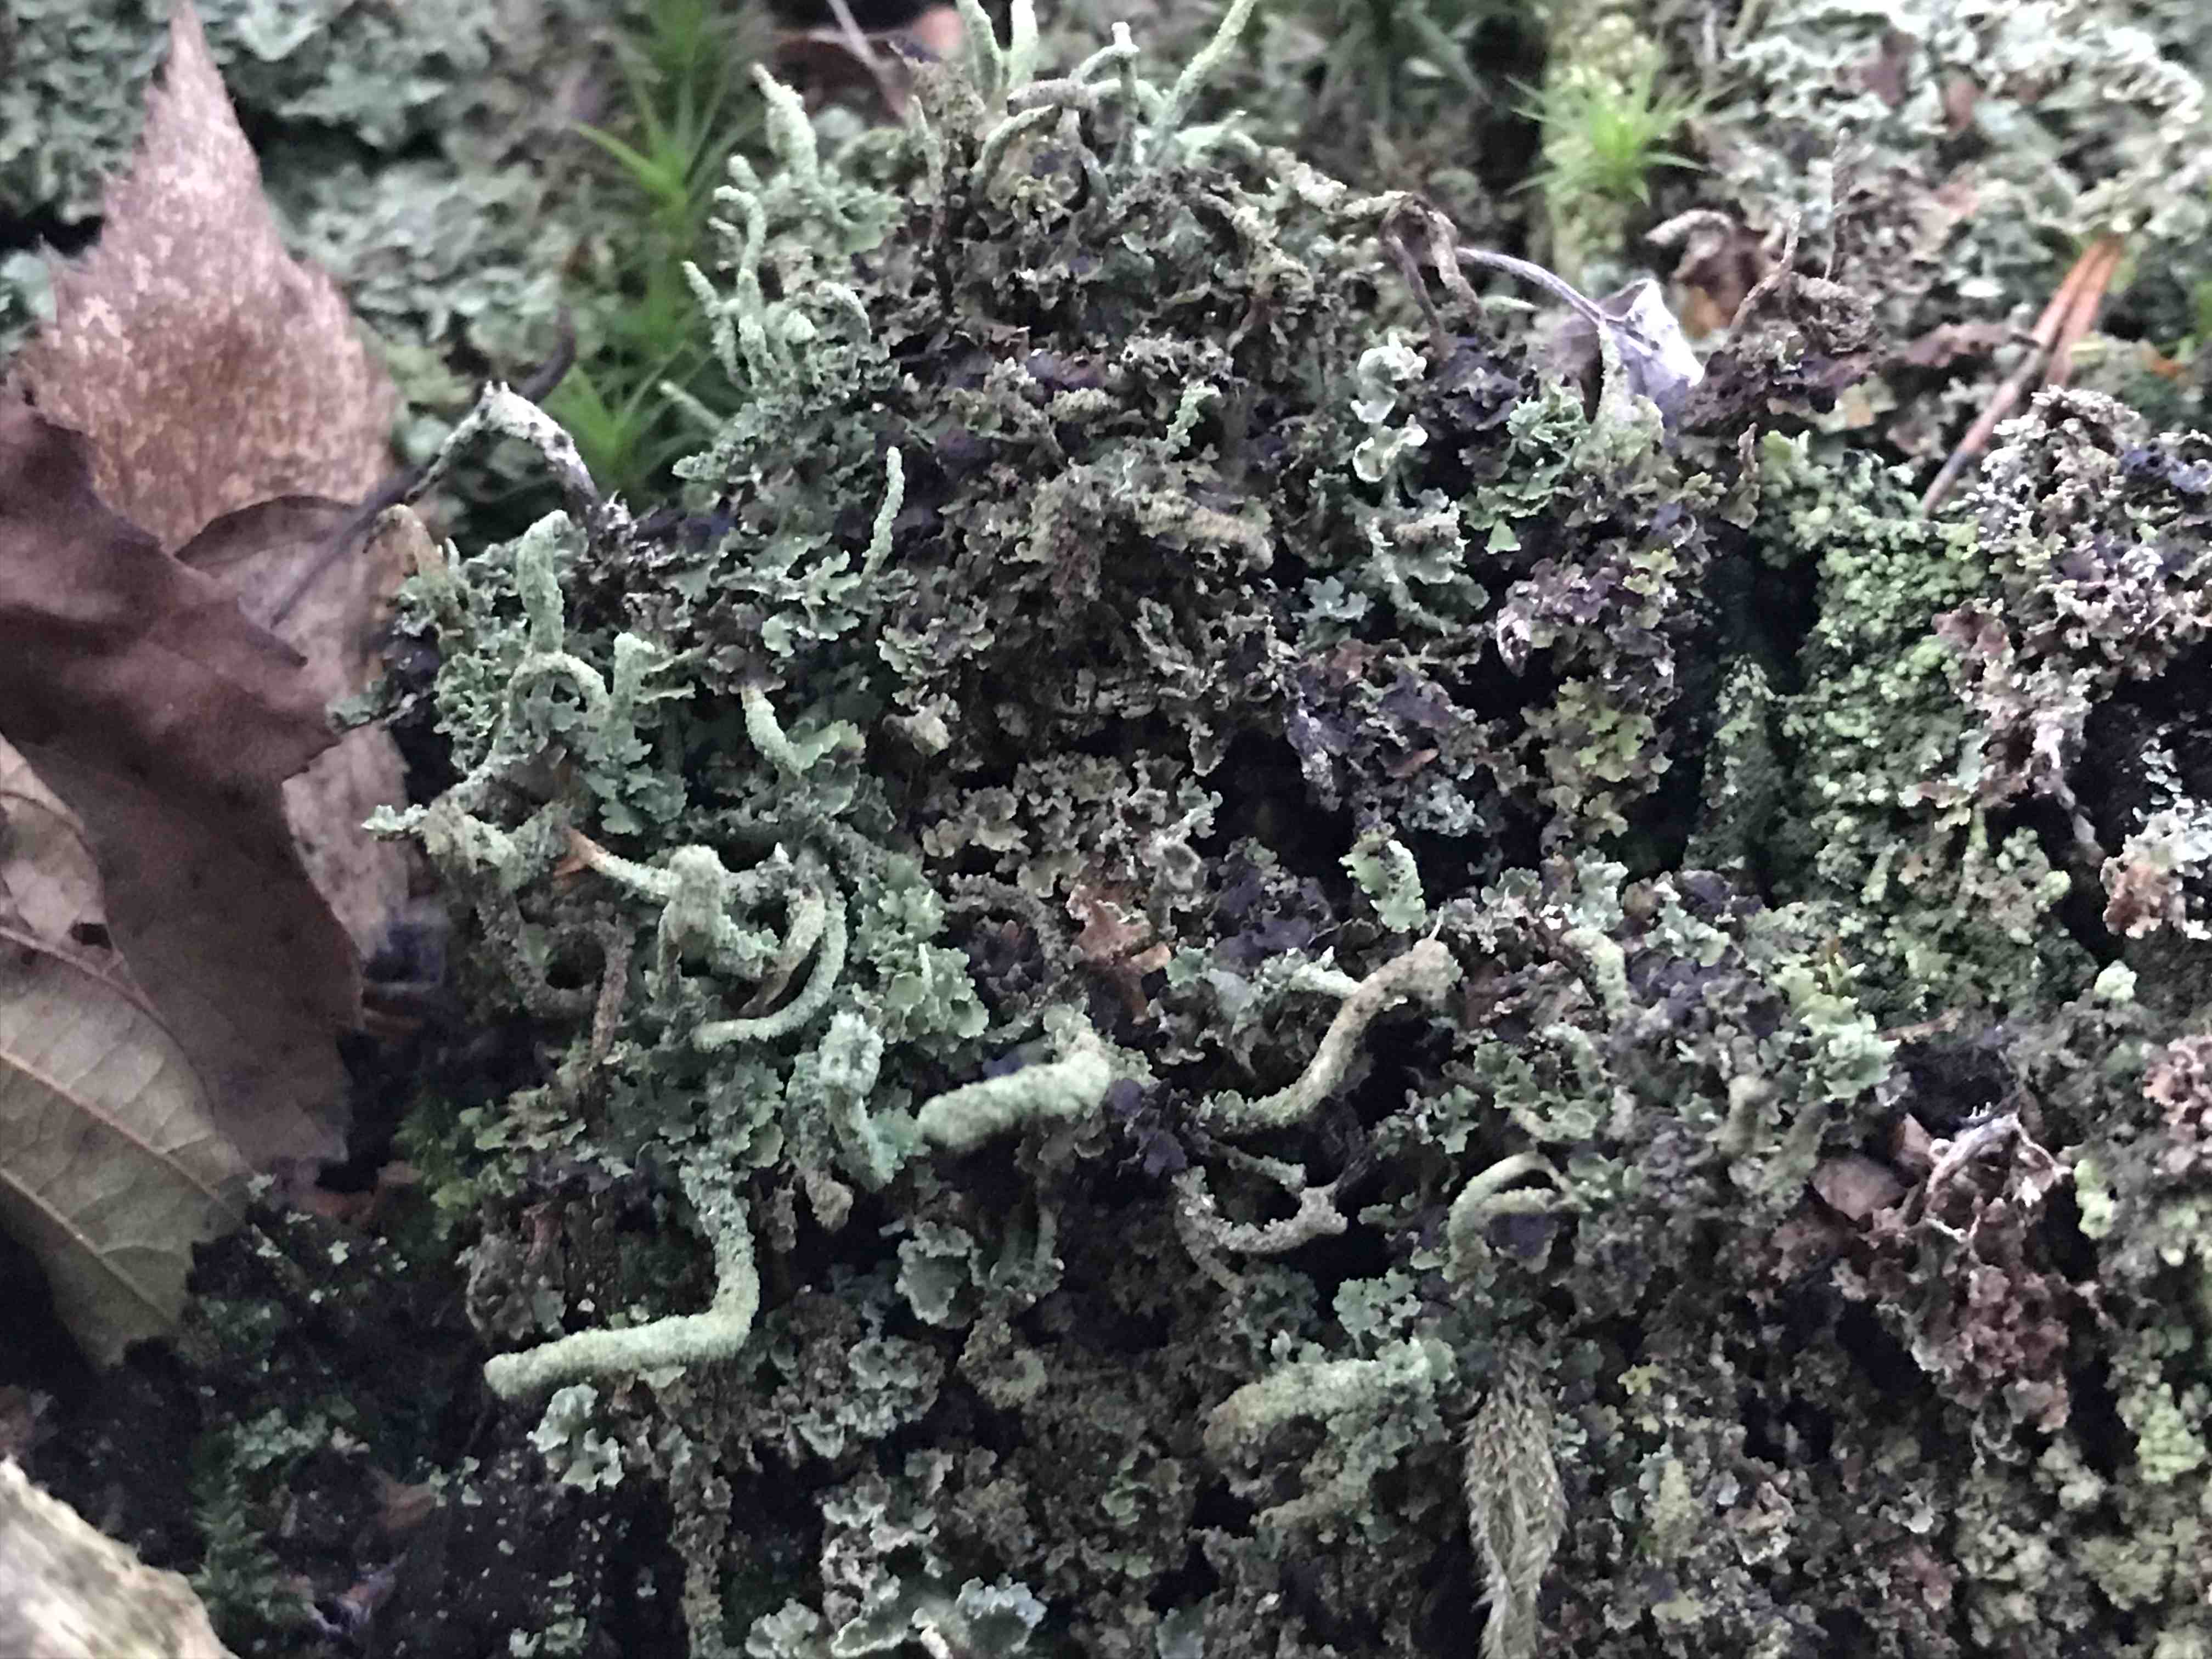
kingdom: Fungi
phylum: Ascomycota
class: Lecanoromycetes
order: Lecanorales
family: Cladoniaceae
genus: Cladonia
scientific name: Cladonia
